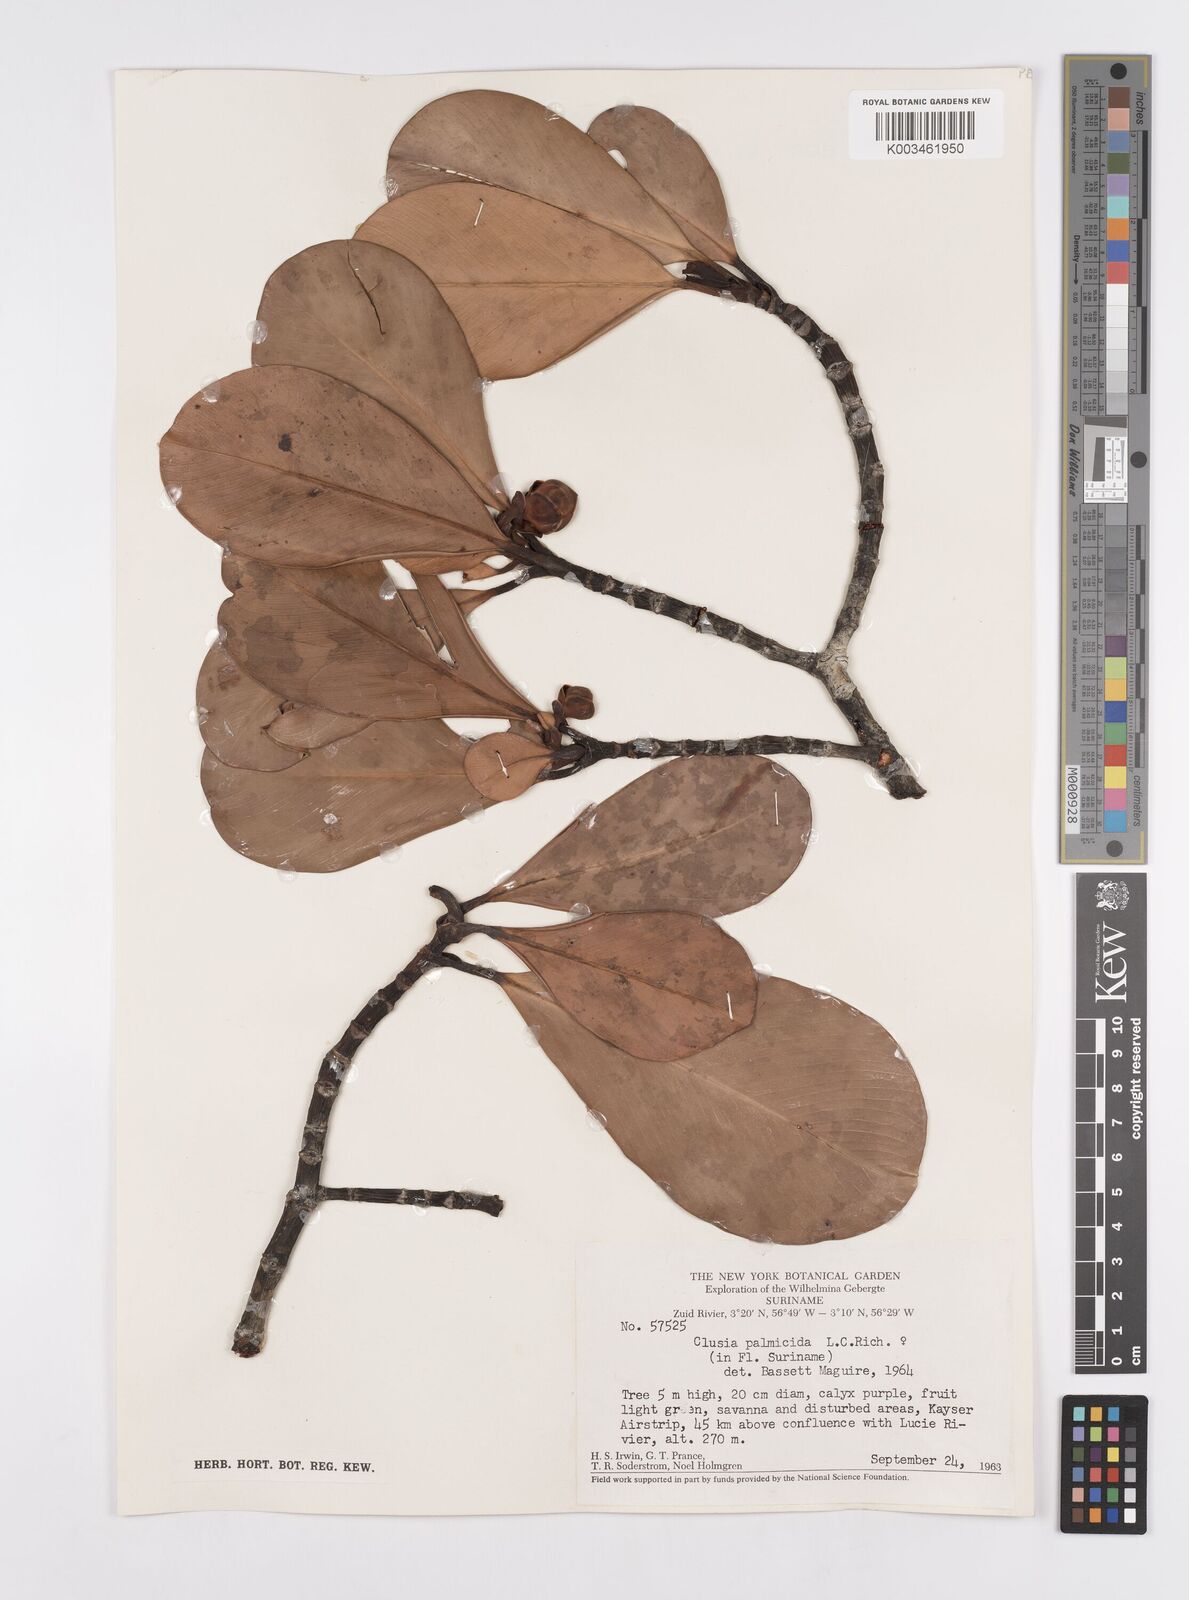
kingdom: Plantae
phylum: Tracheophyta
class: Magnoliopsida
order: Malpighiales
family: Clusiaceae
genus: Clusia
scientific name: Clusia palmicida
